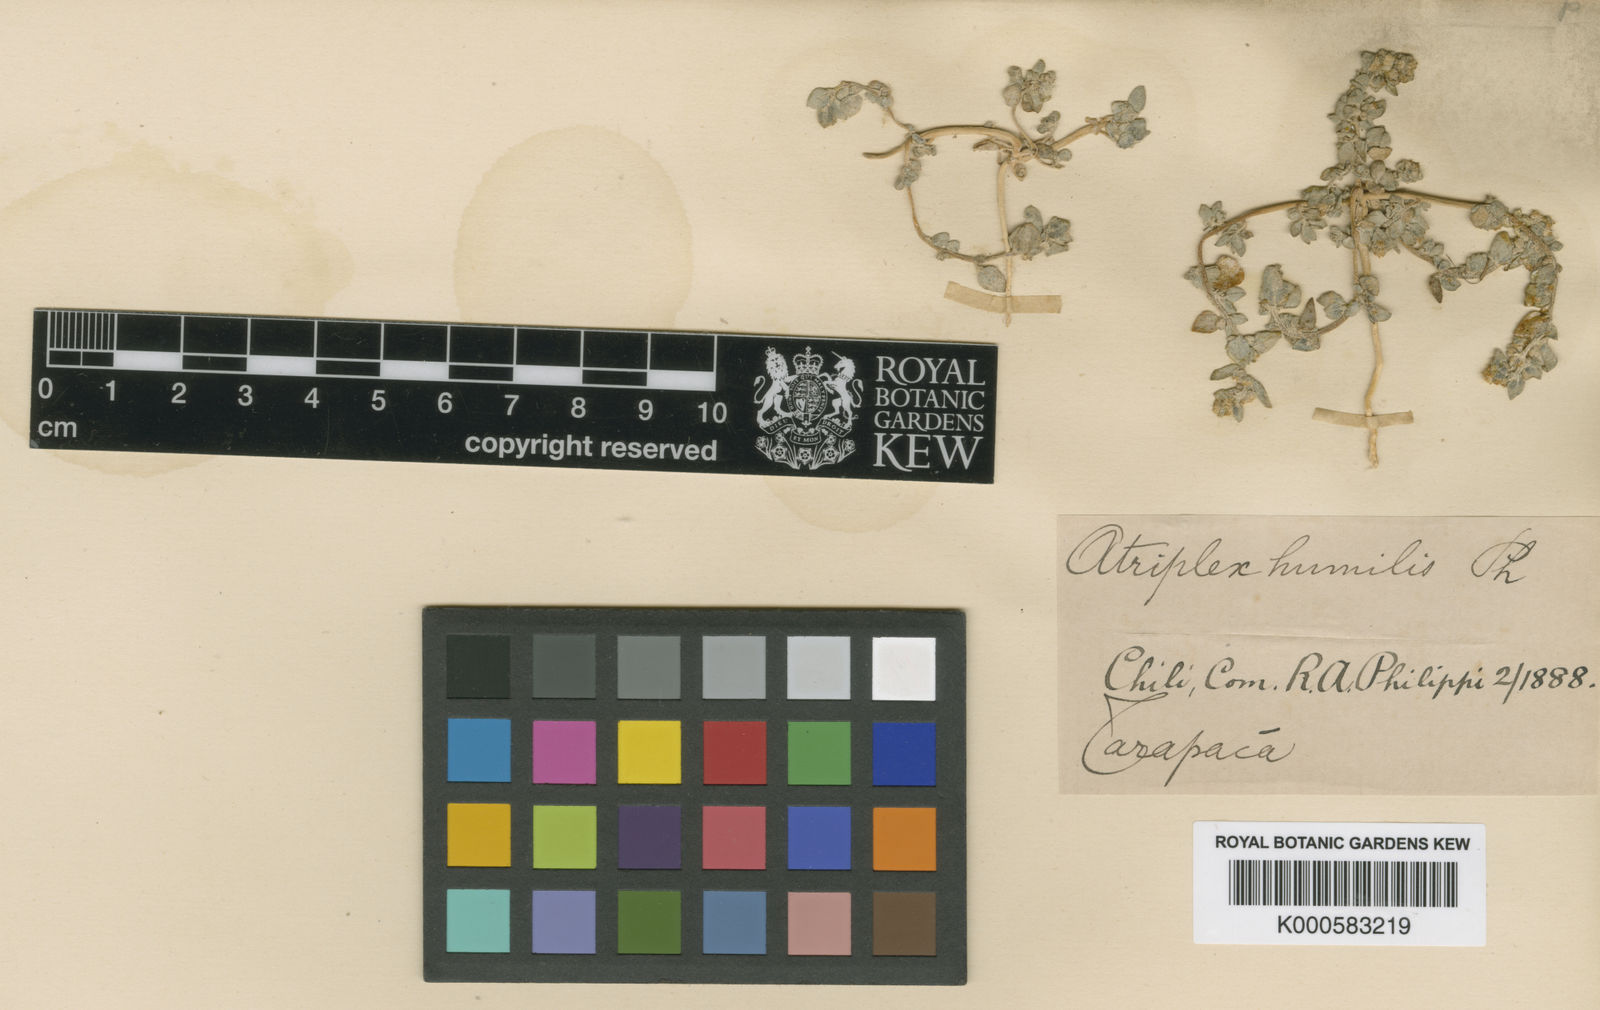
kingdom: Plantae
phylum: Tracheophyta
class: Magnoliopsida
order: Caryophyllales
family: Amaranthaceae
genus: Atriplex
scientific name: Atriplex oreophila
